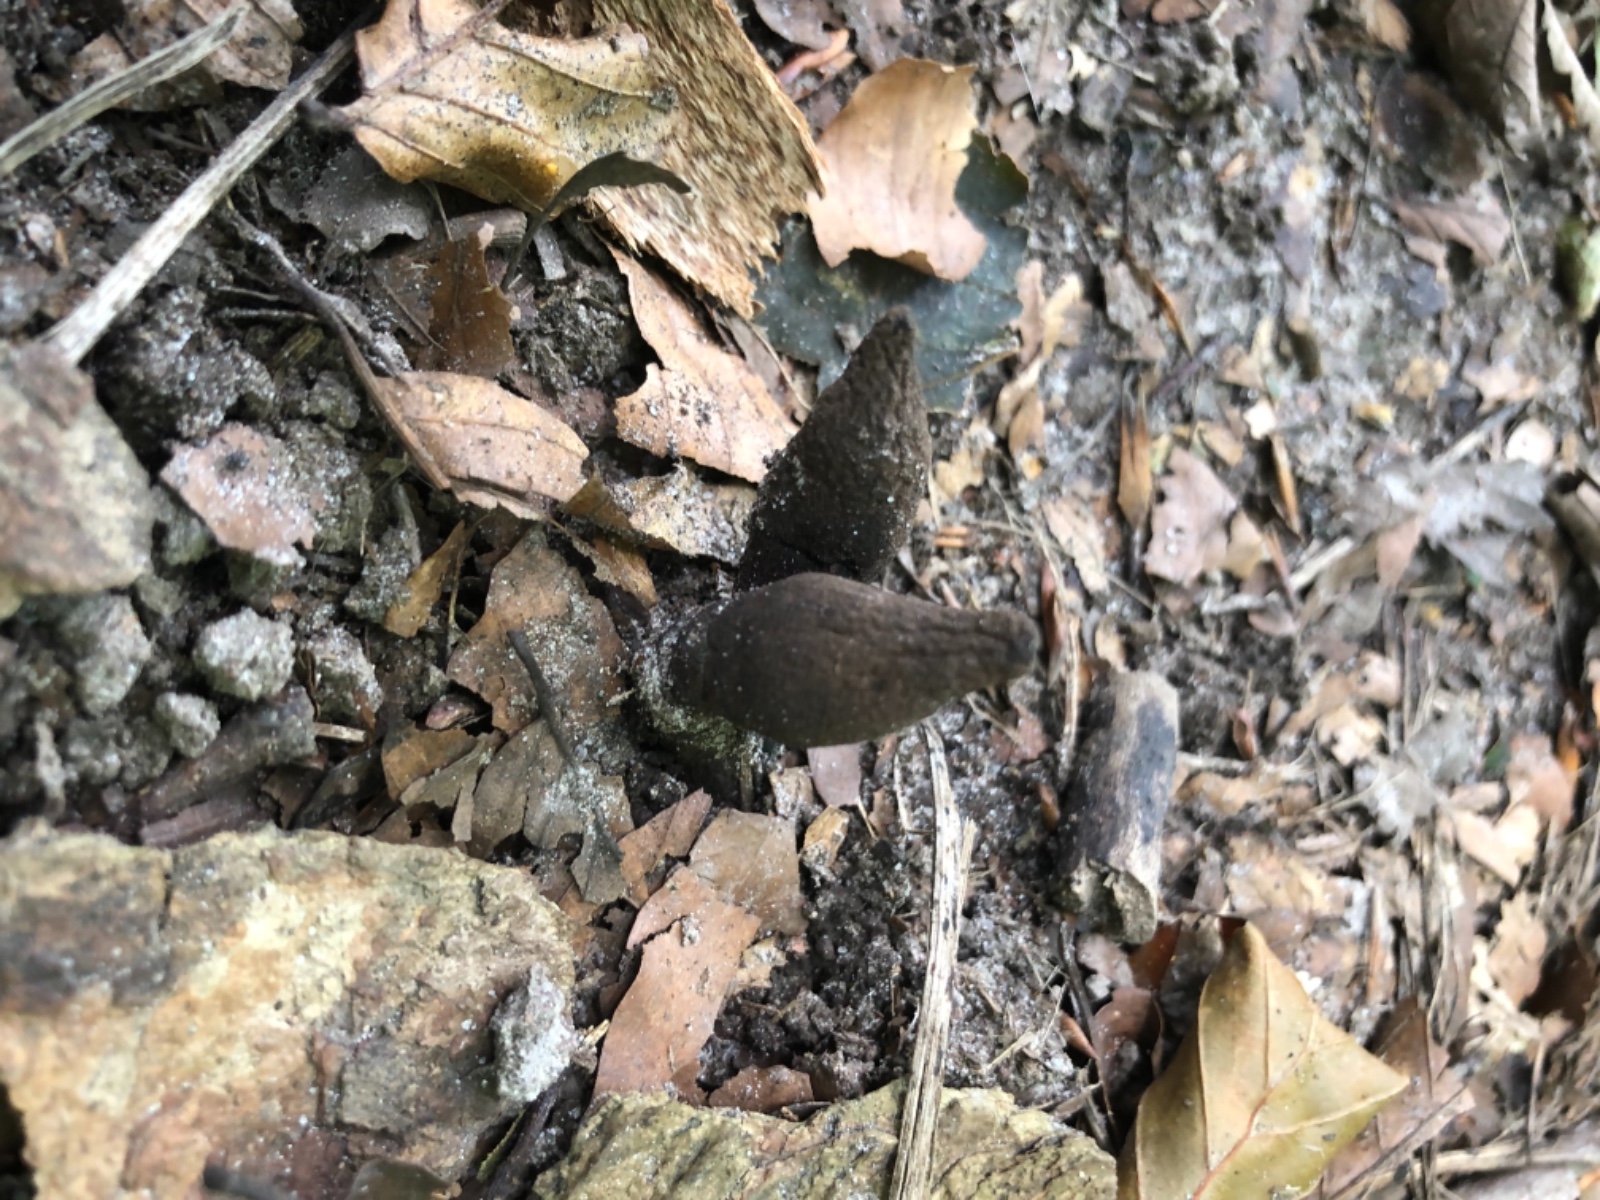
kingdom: Fungi
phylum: Ascomycota
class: Sordariomycetes
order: Xylariales
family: Xylariaceae
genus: Xylaria
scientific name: Xylaria longipes
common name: slank stødsvamp
